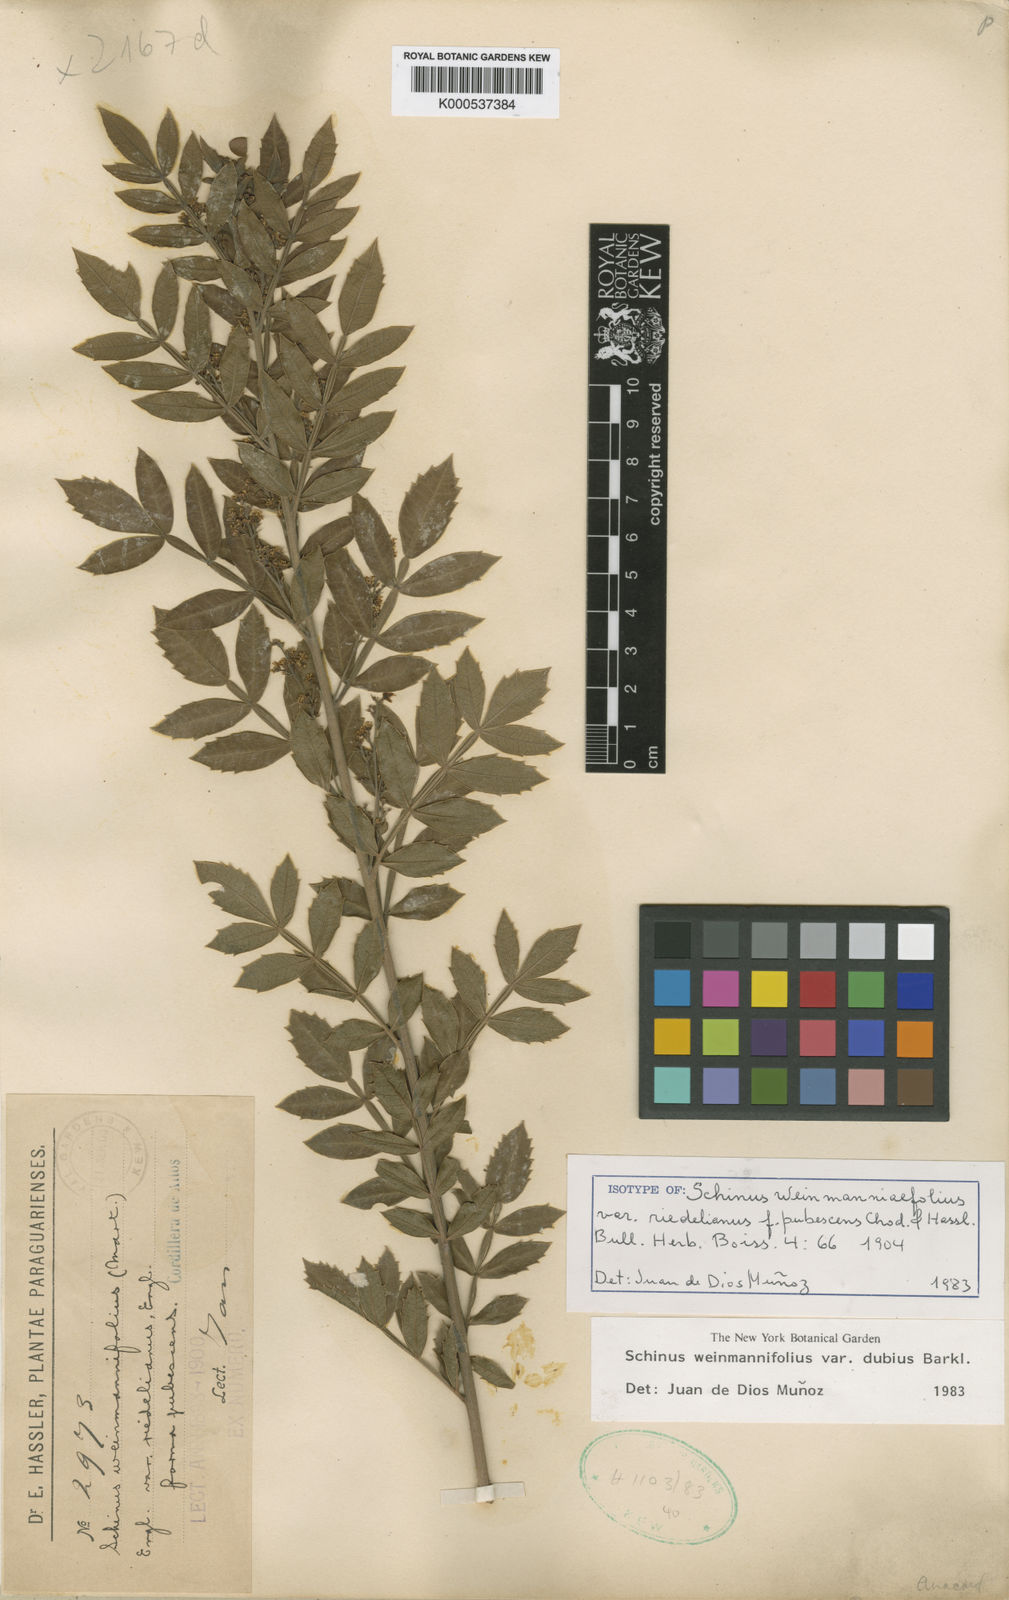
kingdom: Plantae
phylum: Tracheophyta
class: Magnoliopsida
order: Sapindales
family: Anacardiaceae
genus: Schinus
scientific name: Schinus
